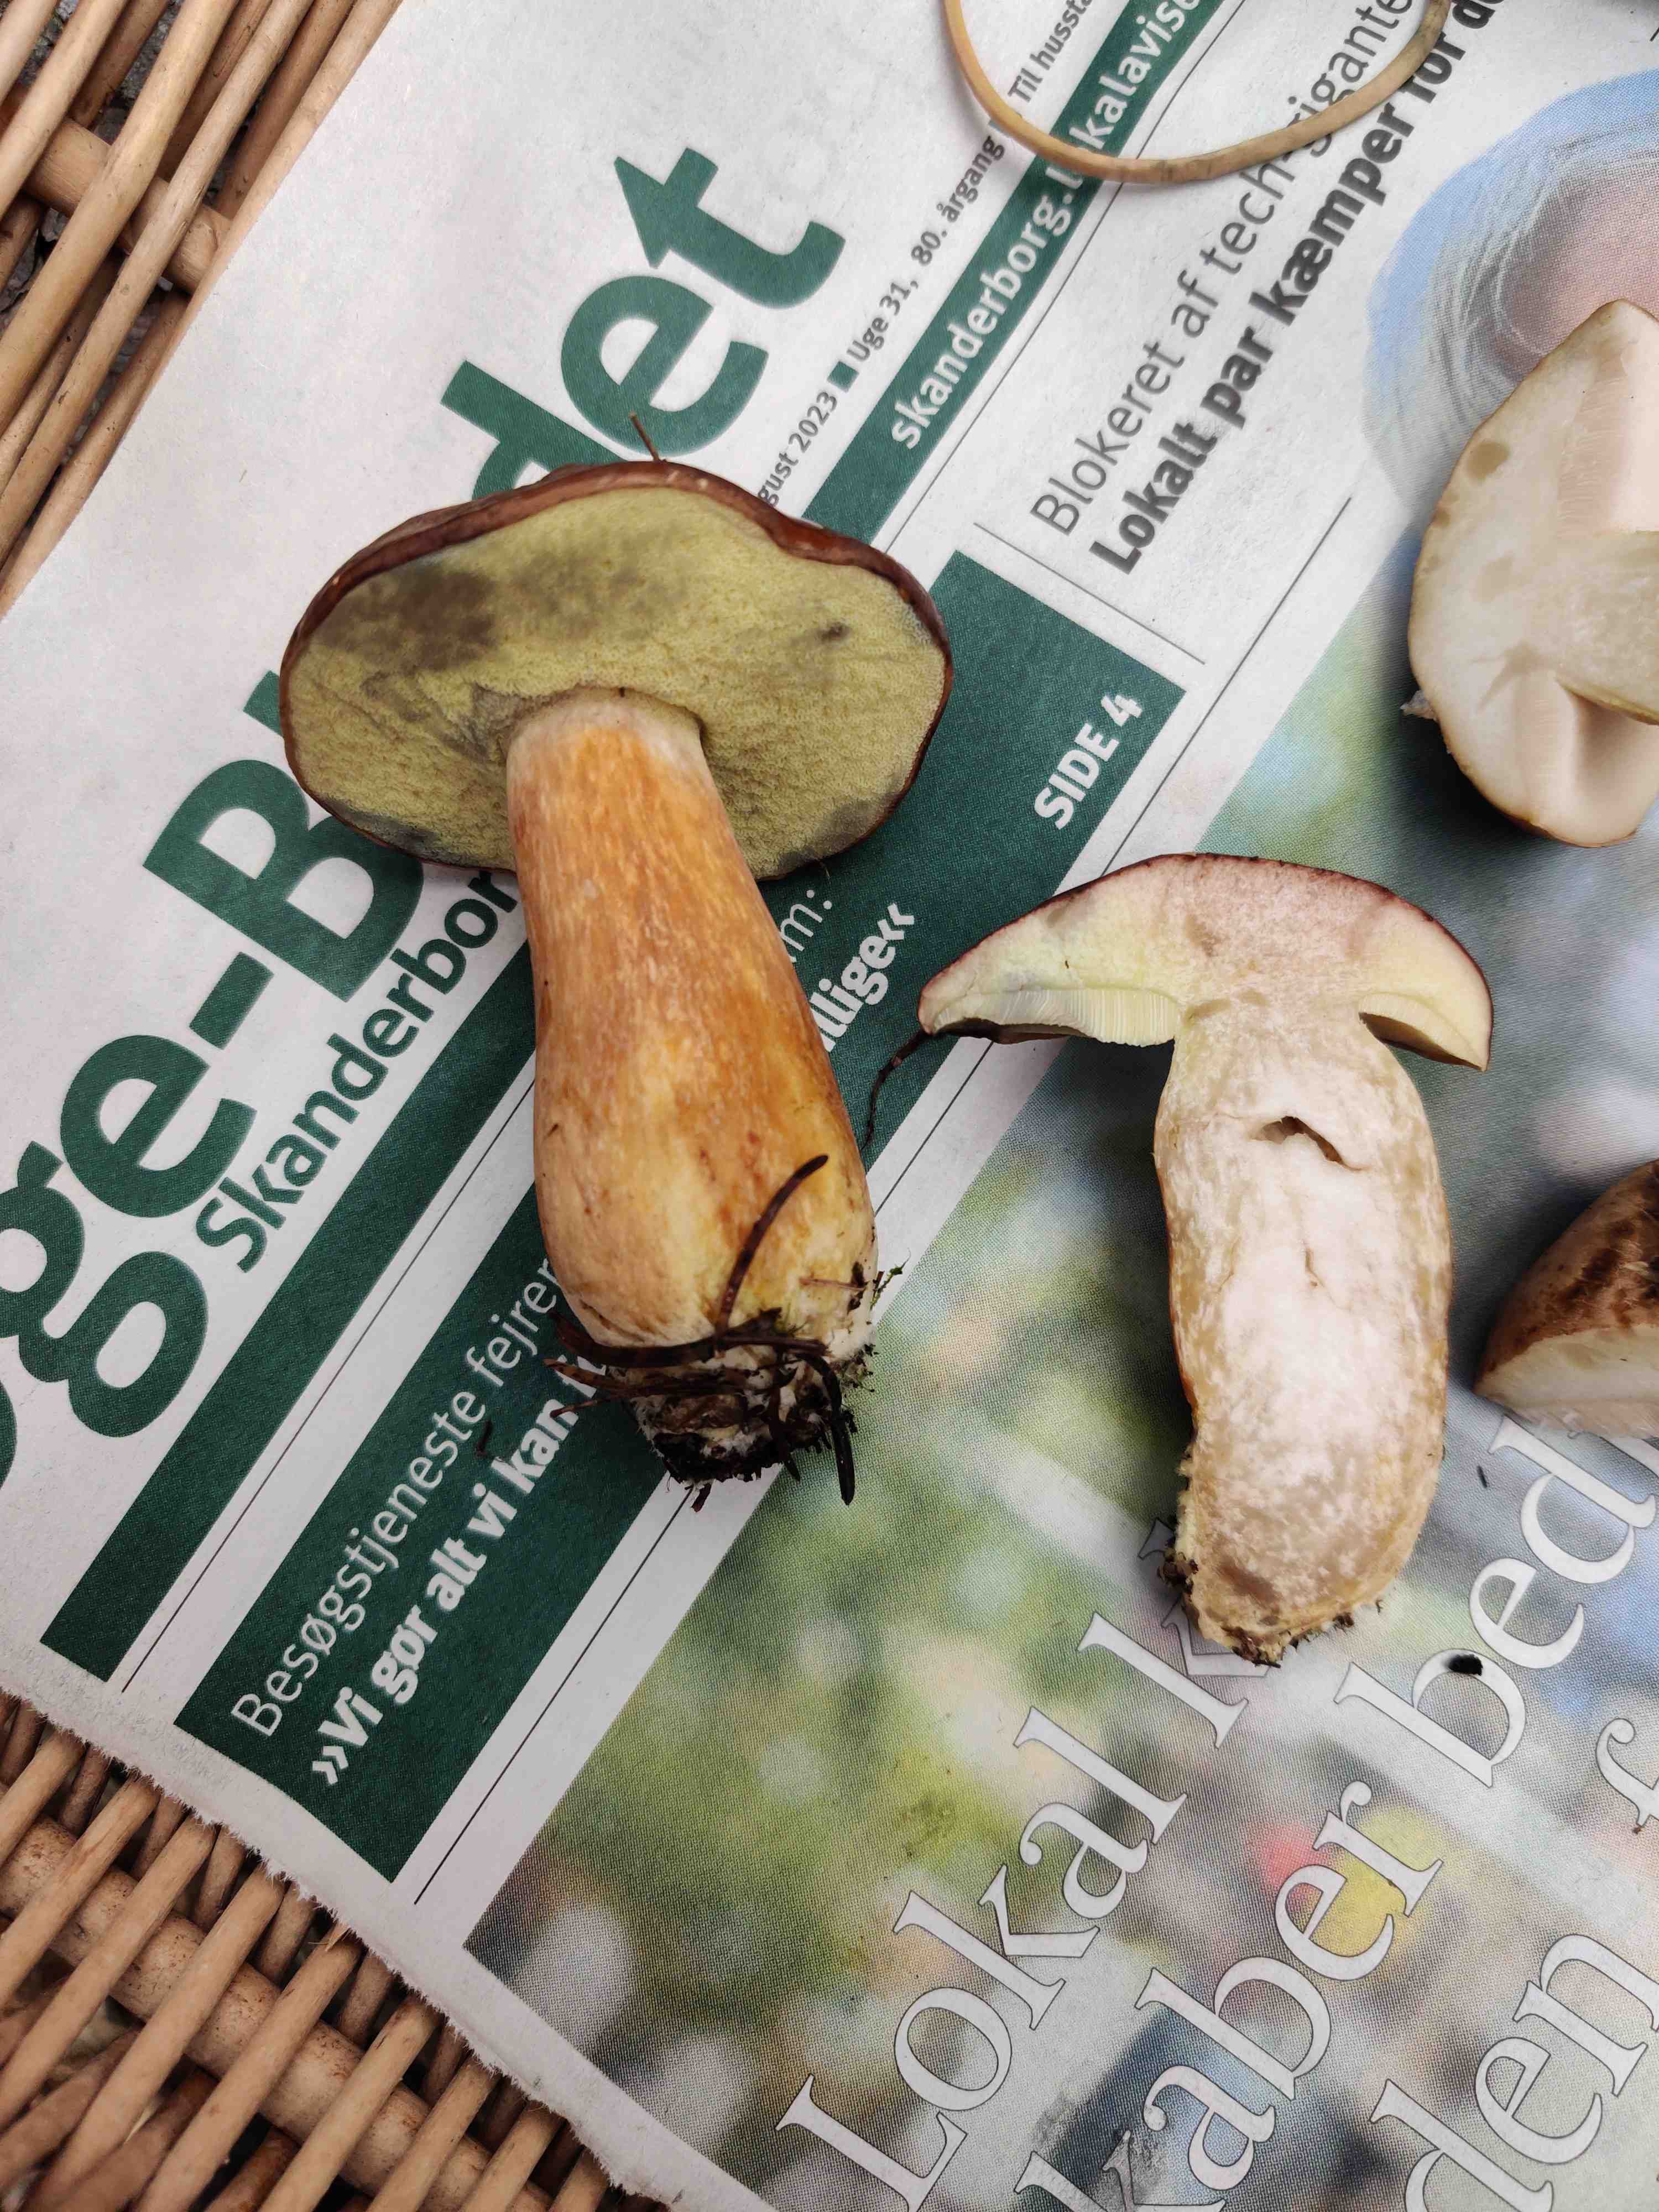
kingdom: Fungi
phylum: Basidiomycota
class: Agaricomycetes
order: Boletales
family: Boletaceae
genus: Imleria
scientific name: Imleria badia
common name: brunstokket rørhat
